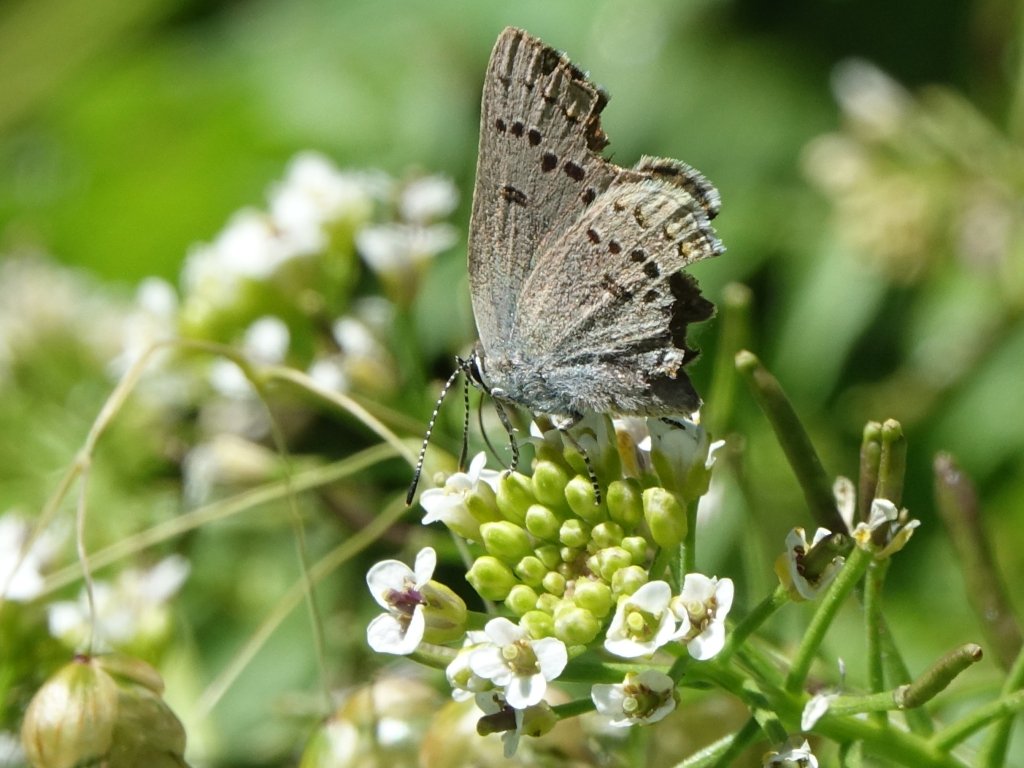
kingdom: Animalia
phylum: Arthropoda
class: Insecta
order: Lepidoptera
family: Lycaenidae
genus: Strymon
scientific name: Strymon acadica
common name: California Hairstreak
